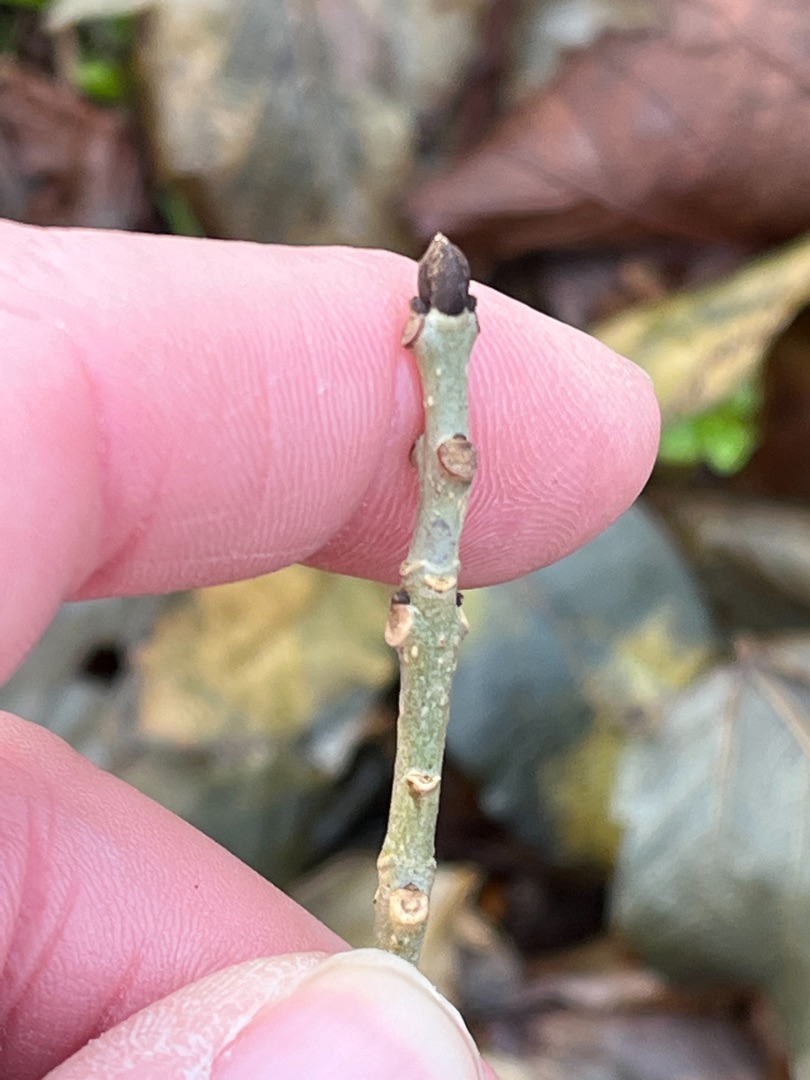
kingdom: Plantae
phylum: Tracheophyta
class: Magnoliopsida
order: Lamiales
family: Oleaceae
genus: Fraxinus
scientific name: Fraxinus excelsior
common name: Ask
